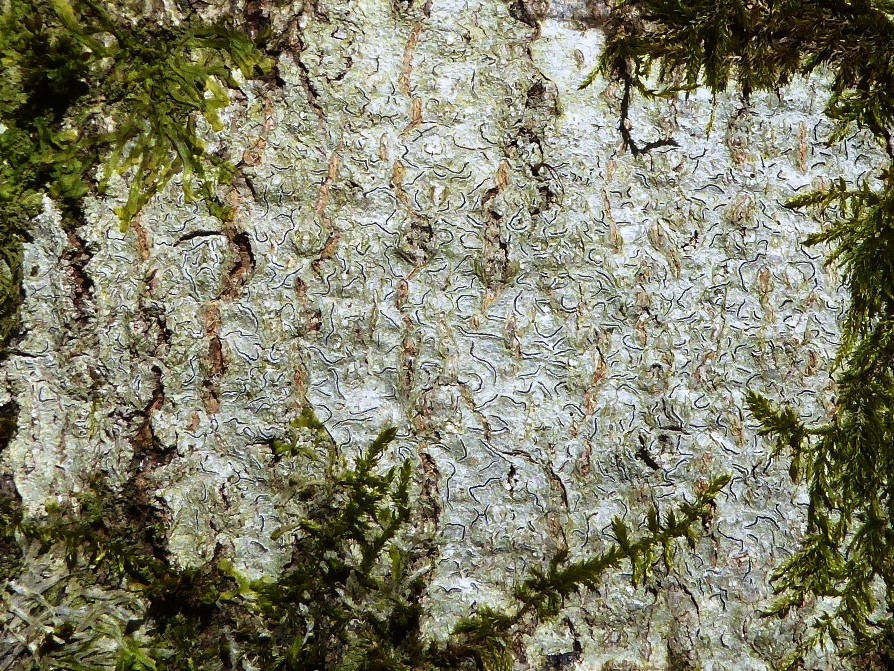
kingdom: Fungi
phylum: Ascomycota
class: Lecanoromycetes
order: Ostropales
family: Graphidaceae
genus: Graphis
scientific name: Graphis scripta
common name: almindelig skriftlav
